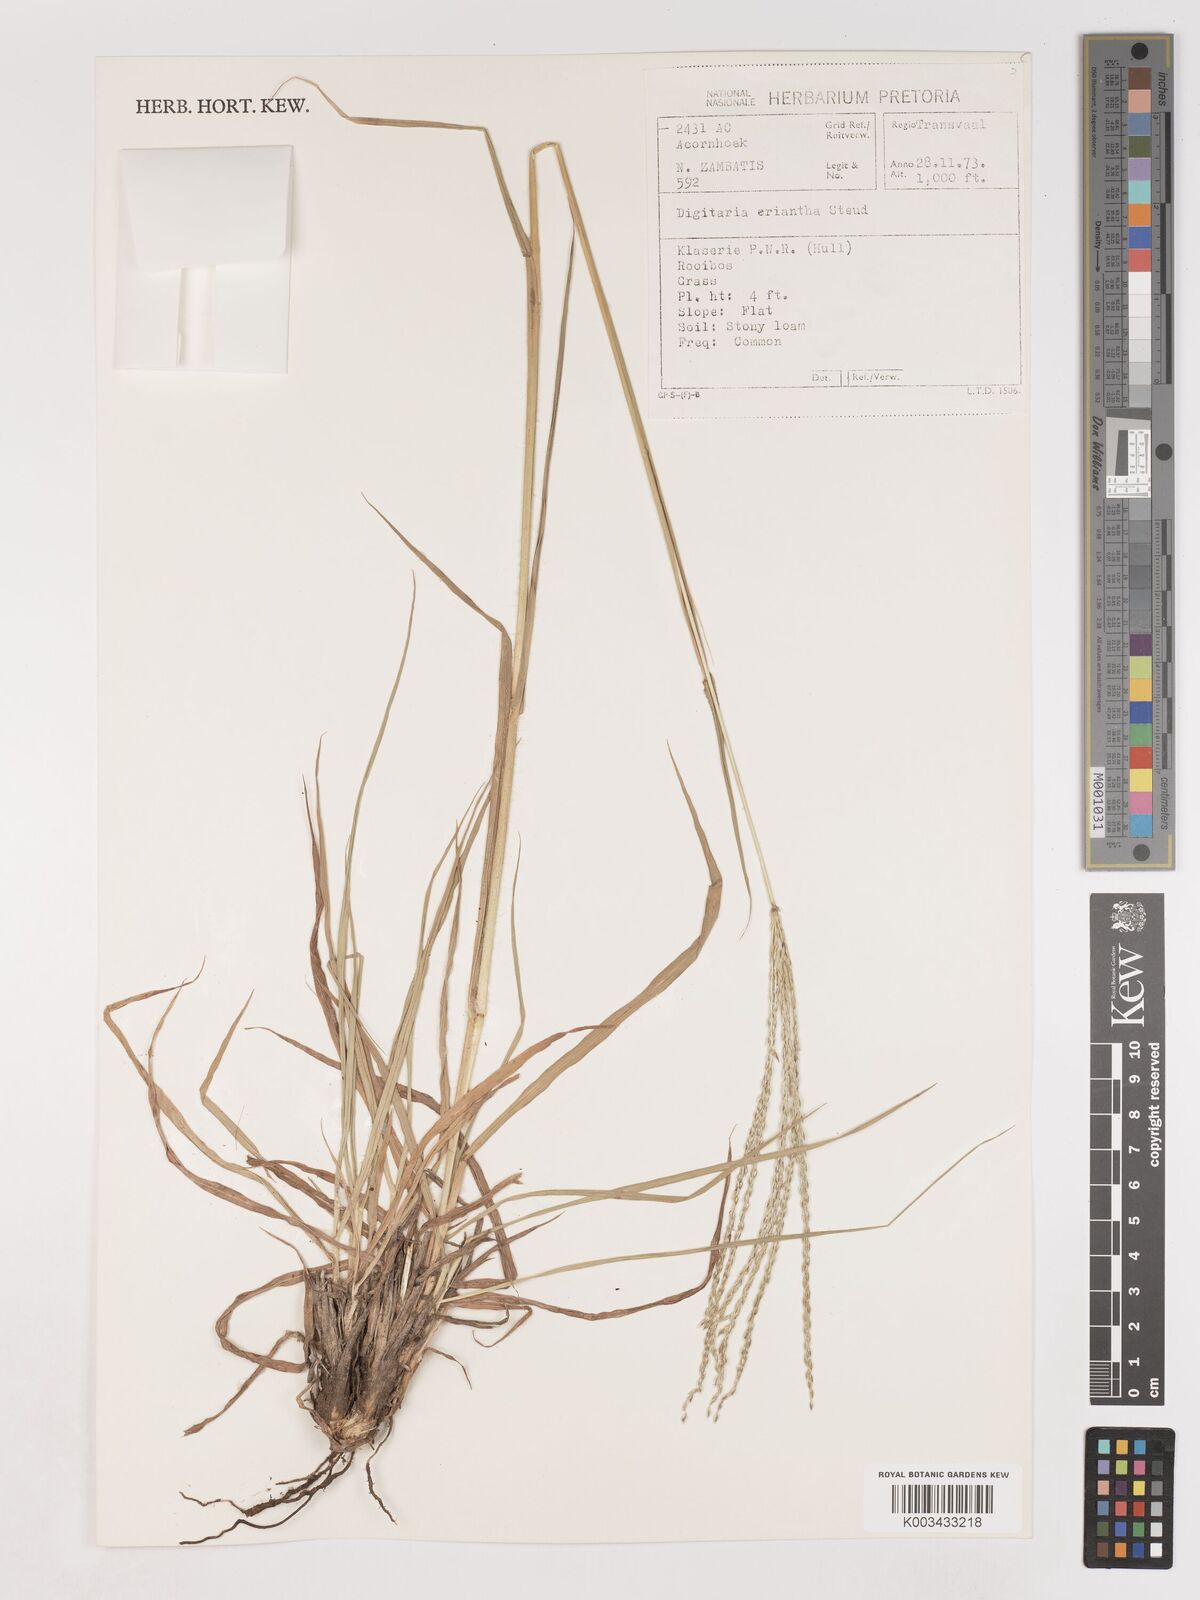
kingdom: Plantae
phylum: Tracheophyta
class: Liliopsida
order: Poales
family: Poaceae
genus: Digitaria
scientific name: Digitaria eriantha
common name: Digitgrass
